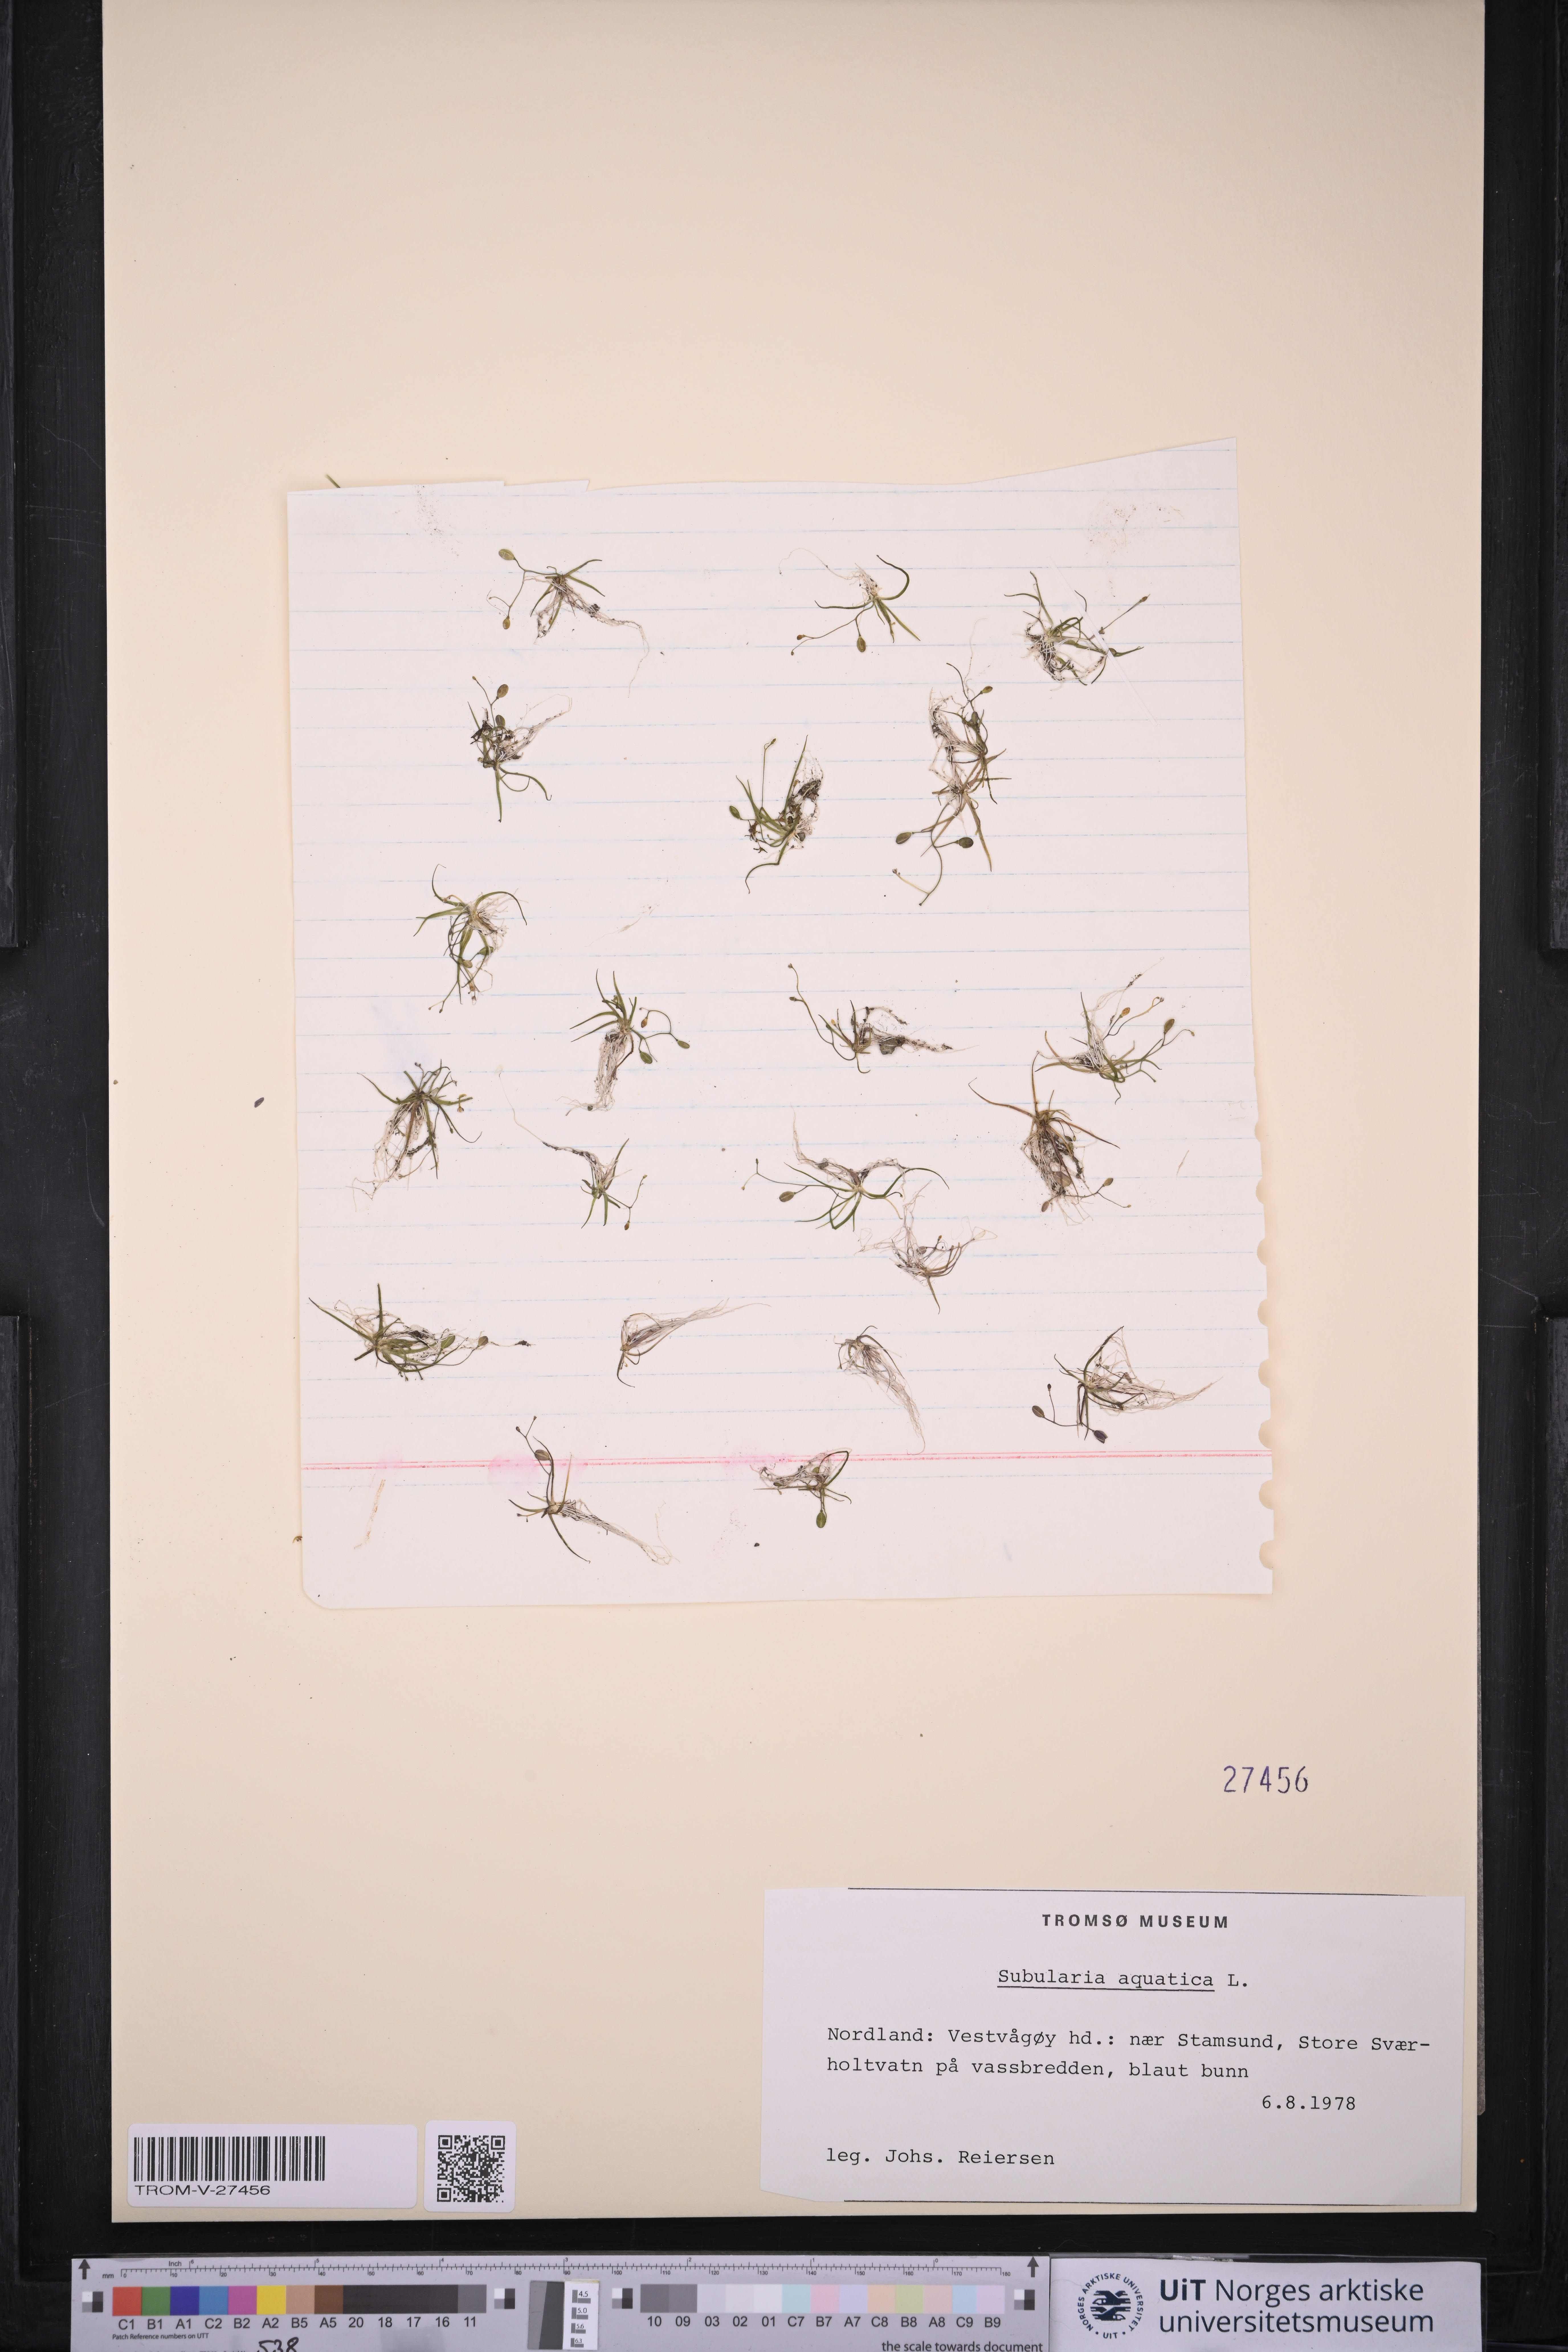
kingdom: Plantae
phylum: Tracheophyta
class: Magnoliopsida
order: Brassicales
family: Brassicaceae
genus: Subularia
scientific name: Subularia aquatica
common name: Awlwort
